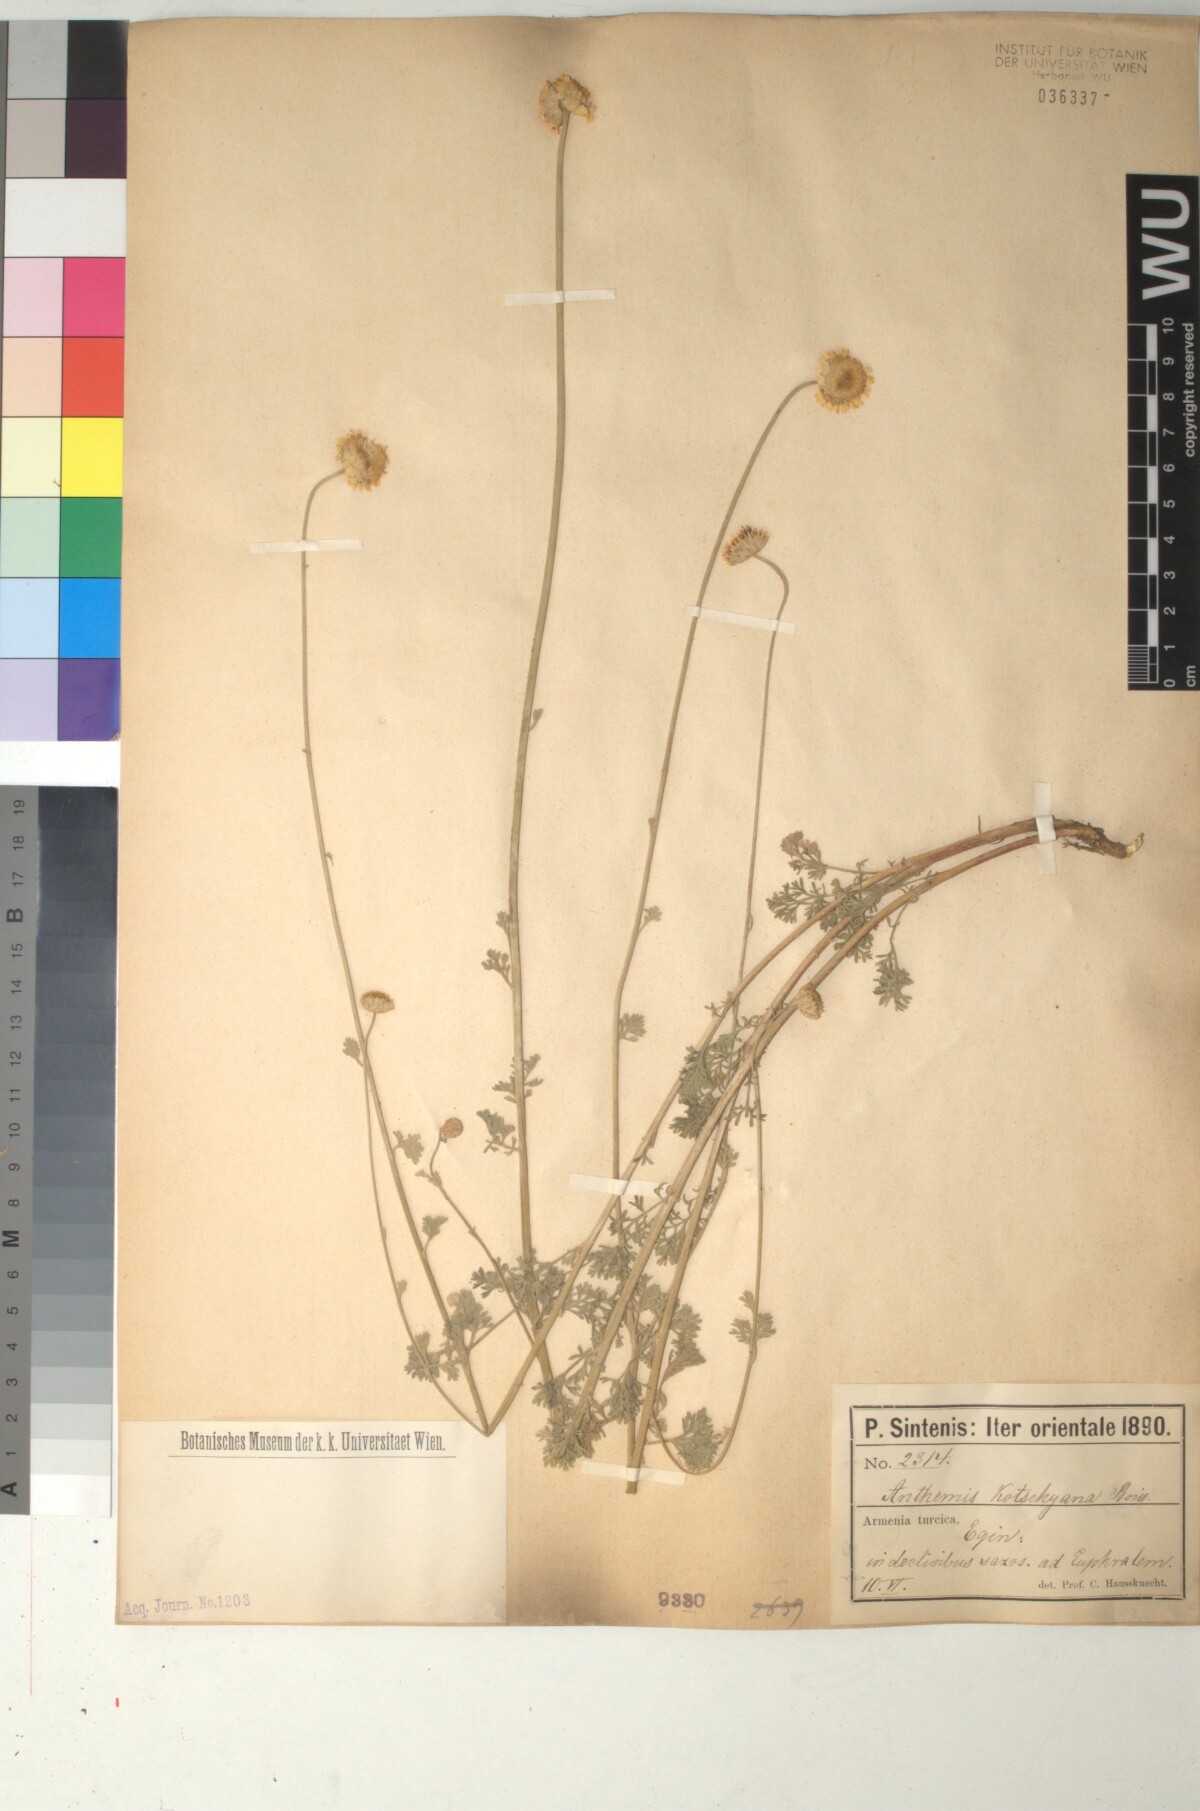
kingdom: Plantae
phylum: Tracheophyta
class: Magnoliopsida
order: Asterales
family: Asteraceae
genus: Anthemis
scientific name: Anthemis kotschyana
